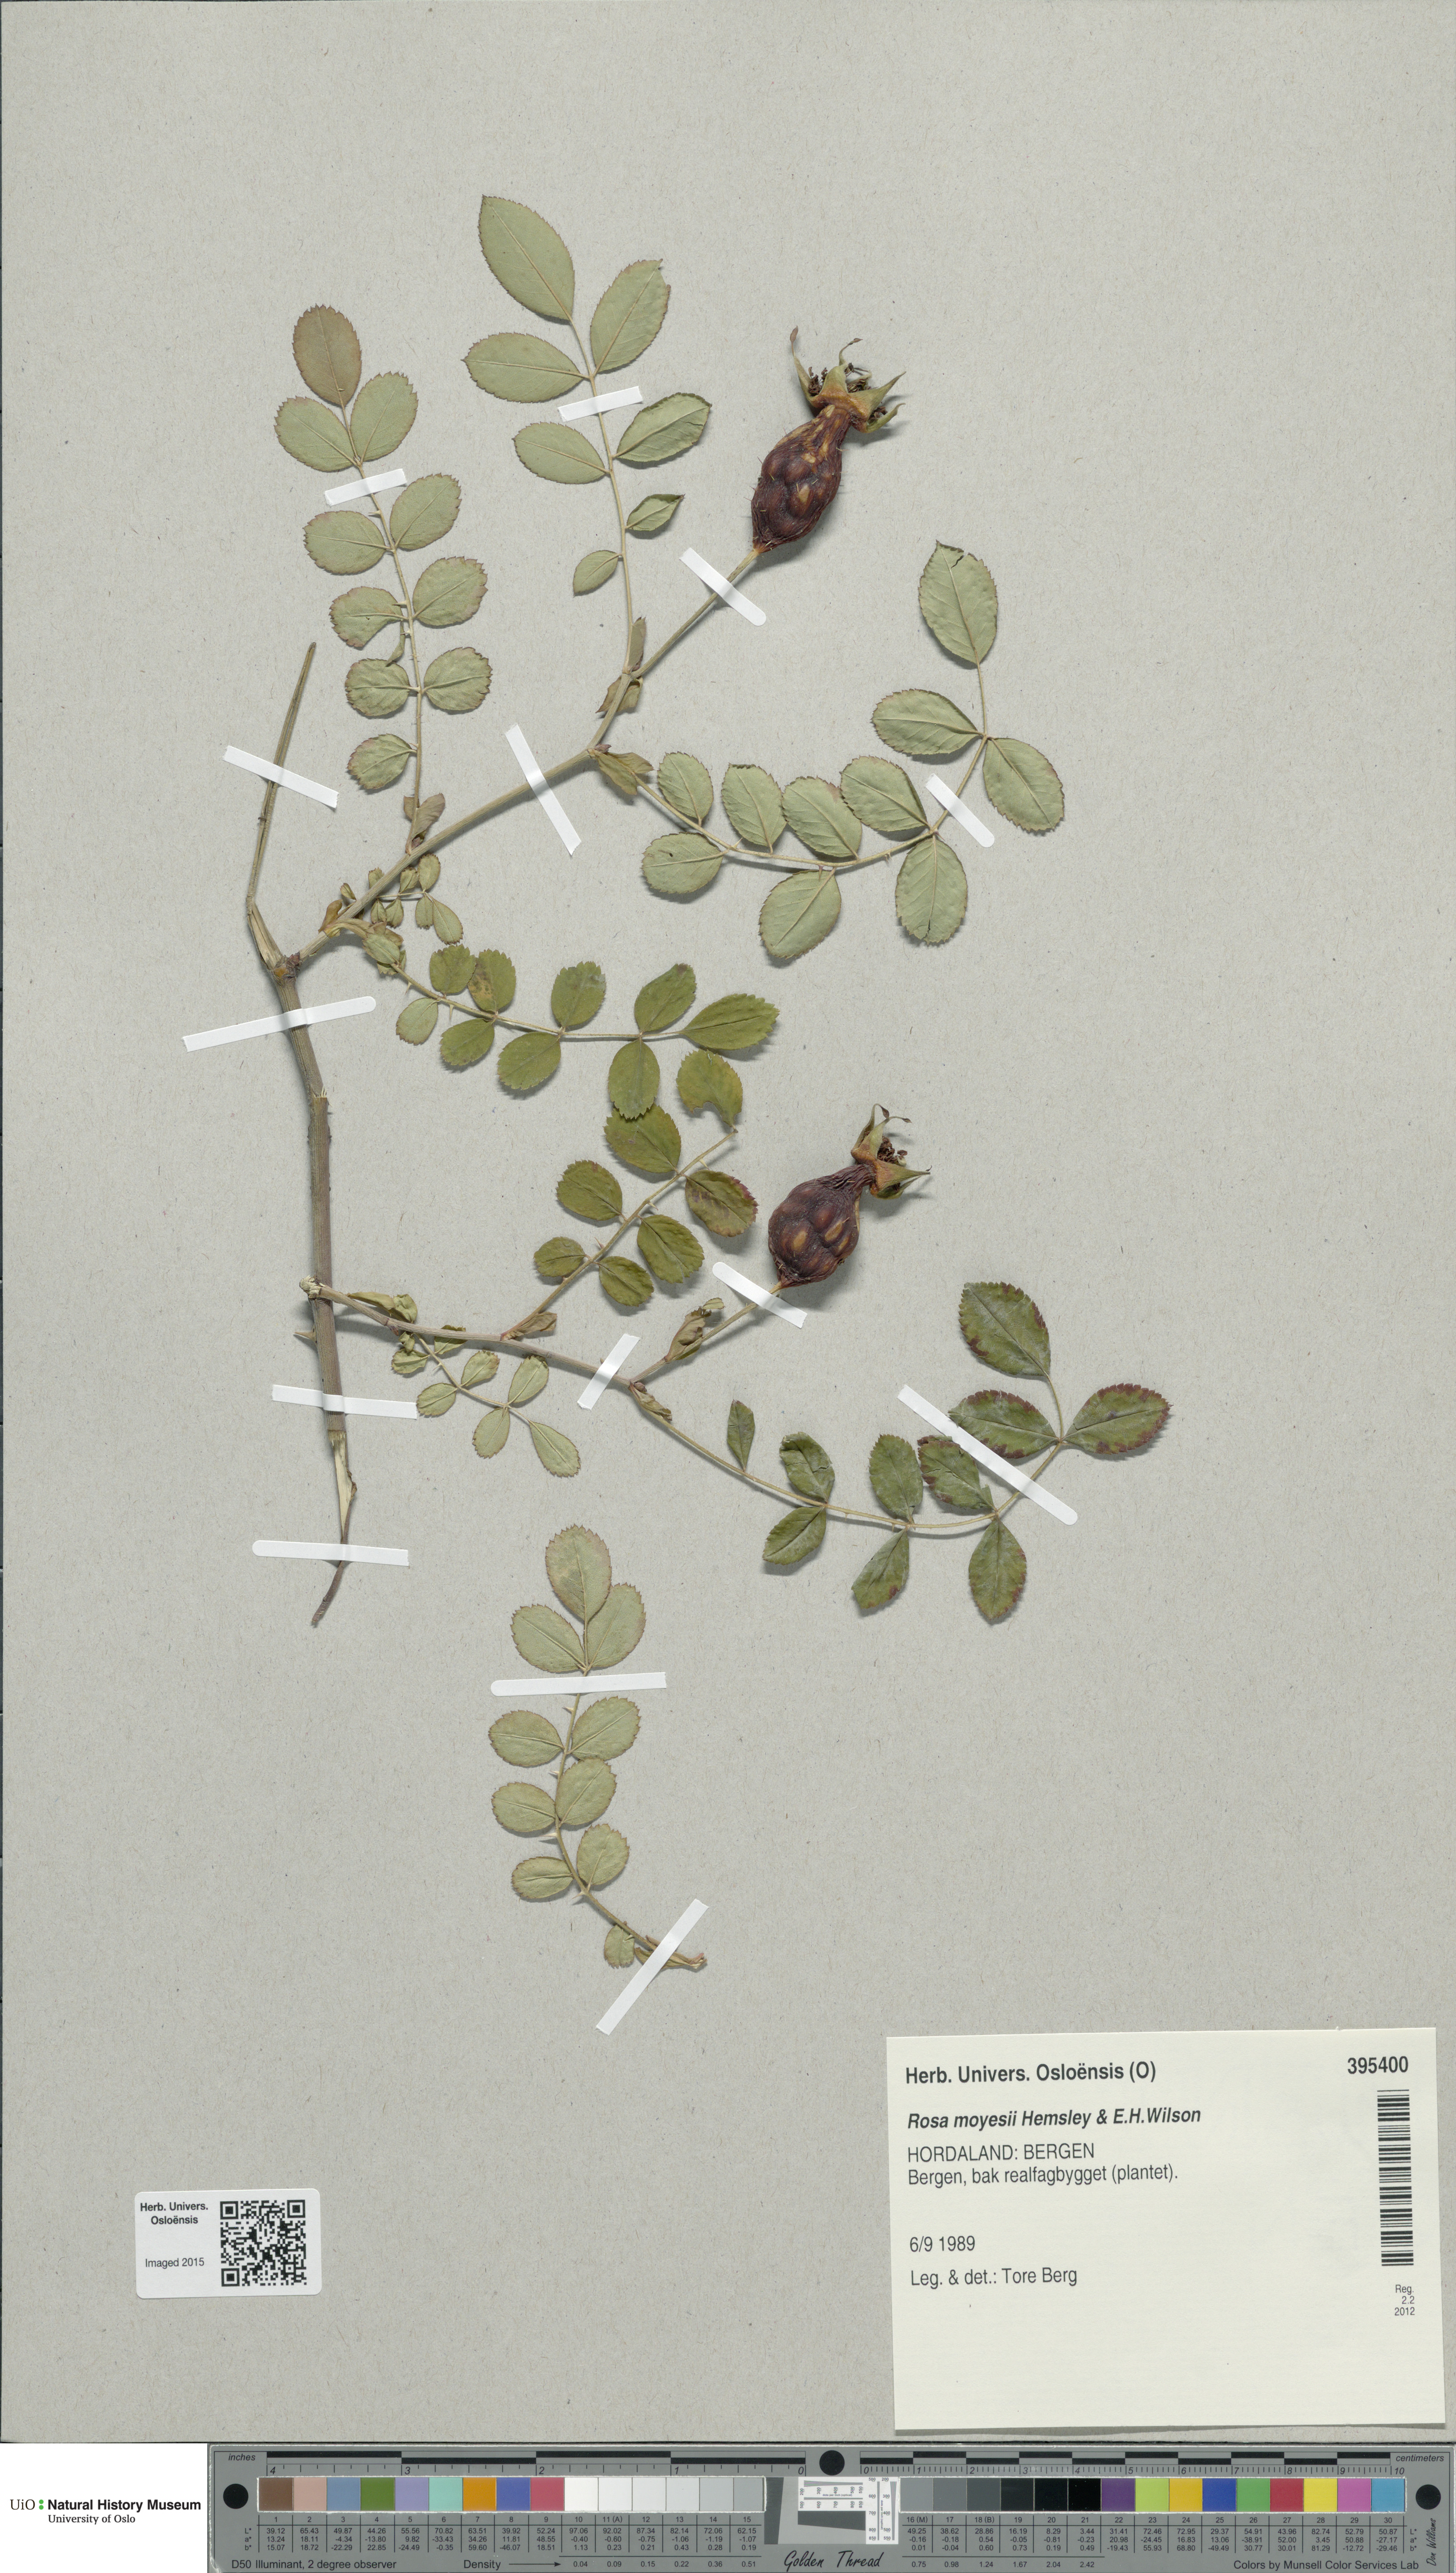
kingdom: Plantae
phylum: Tracheophyta
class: Magnoliopsida
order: Rosales
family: Rosaceae
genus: Rosa
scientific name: Rosa moyesii
